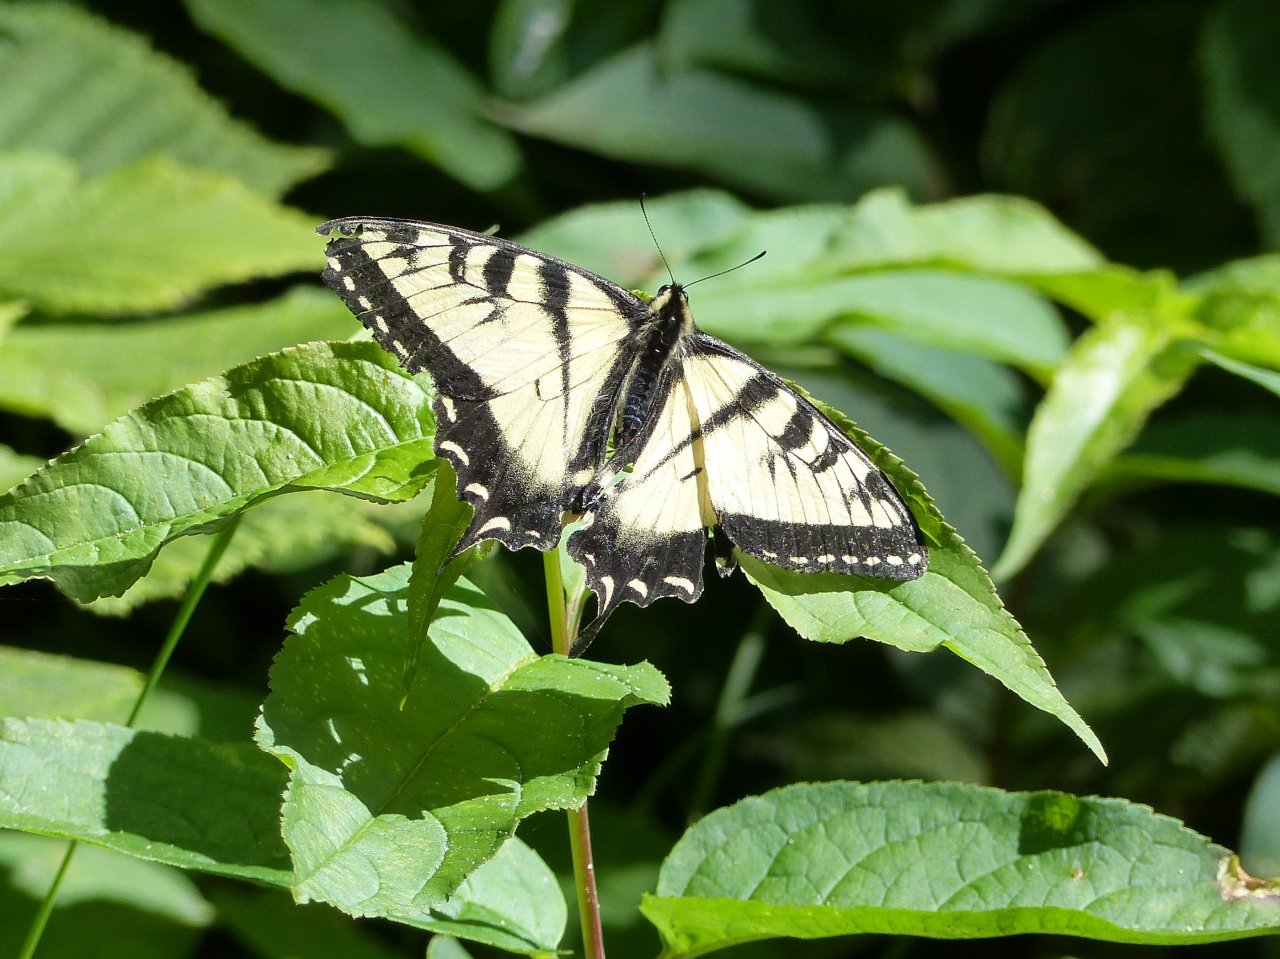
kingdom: Animalia
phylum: Arthropoda
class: Insecta
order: Lepidoptera
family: Papilionidae
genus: Pterourus
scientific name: Pterourus canadensis
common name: Canadian Tiger Swallowtail
